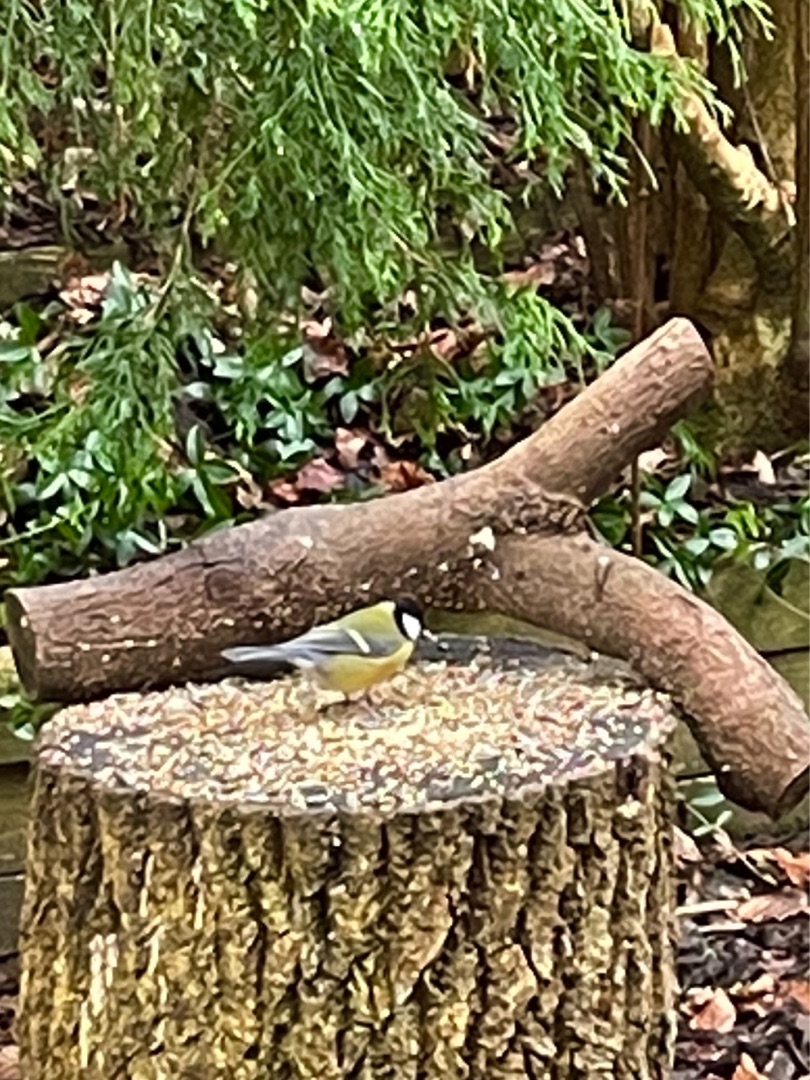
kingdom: Animalia
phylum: Chordata
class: Aves
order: Passeriformes
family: Paridae
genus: Parus
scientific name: Parus major
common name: Musvit
